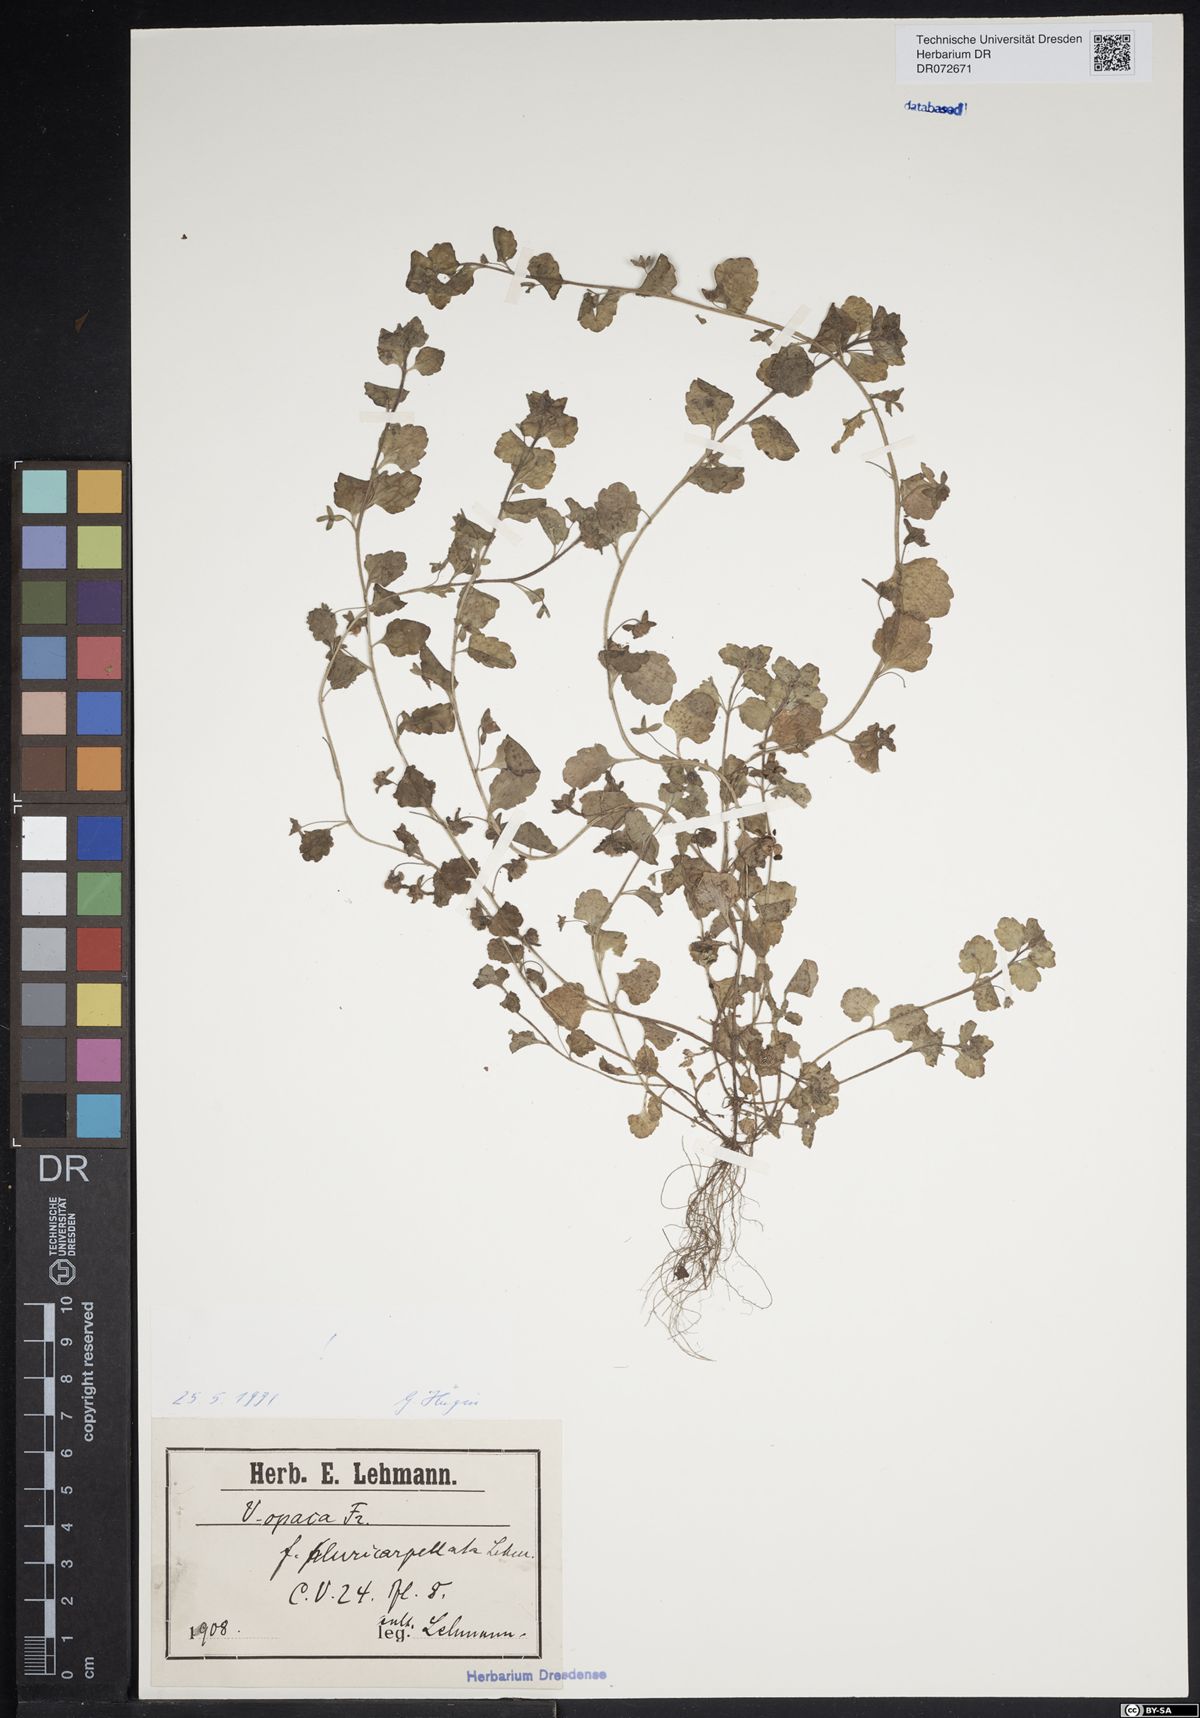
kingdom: Plantae
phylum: Tracheophyta
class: Magnoliopsida
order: Lamiales
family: Plantaginaceae
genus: Veronica
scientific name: Veronica opaca
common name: Dark speedwell
